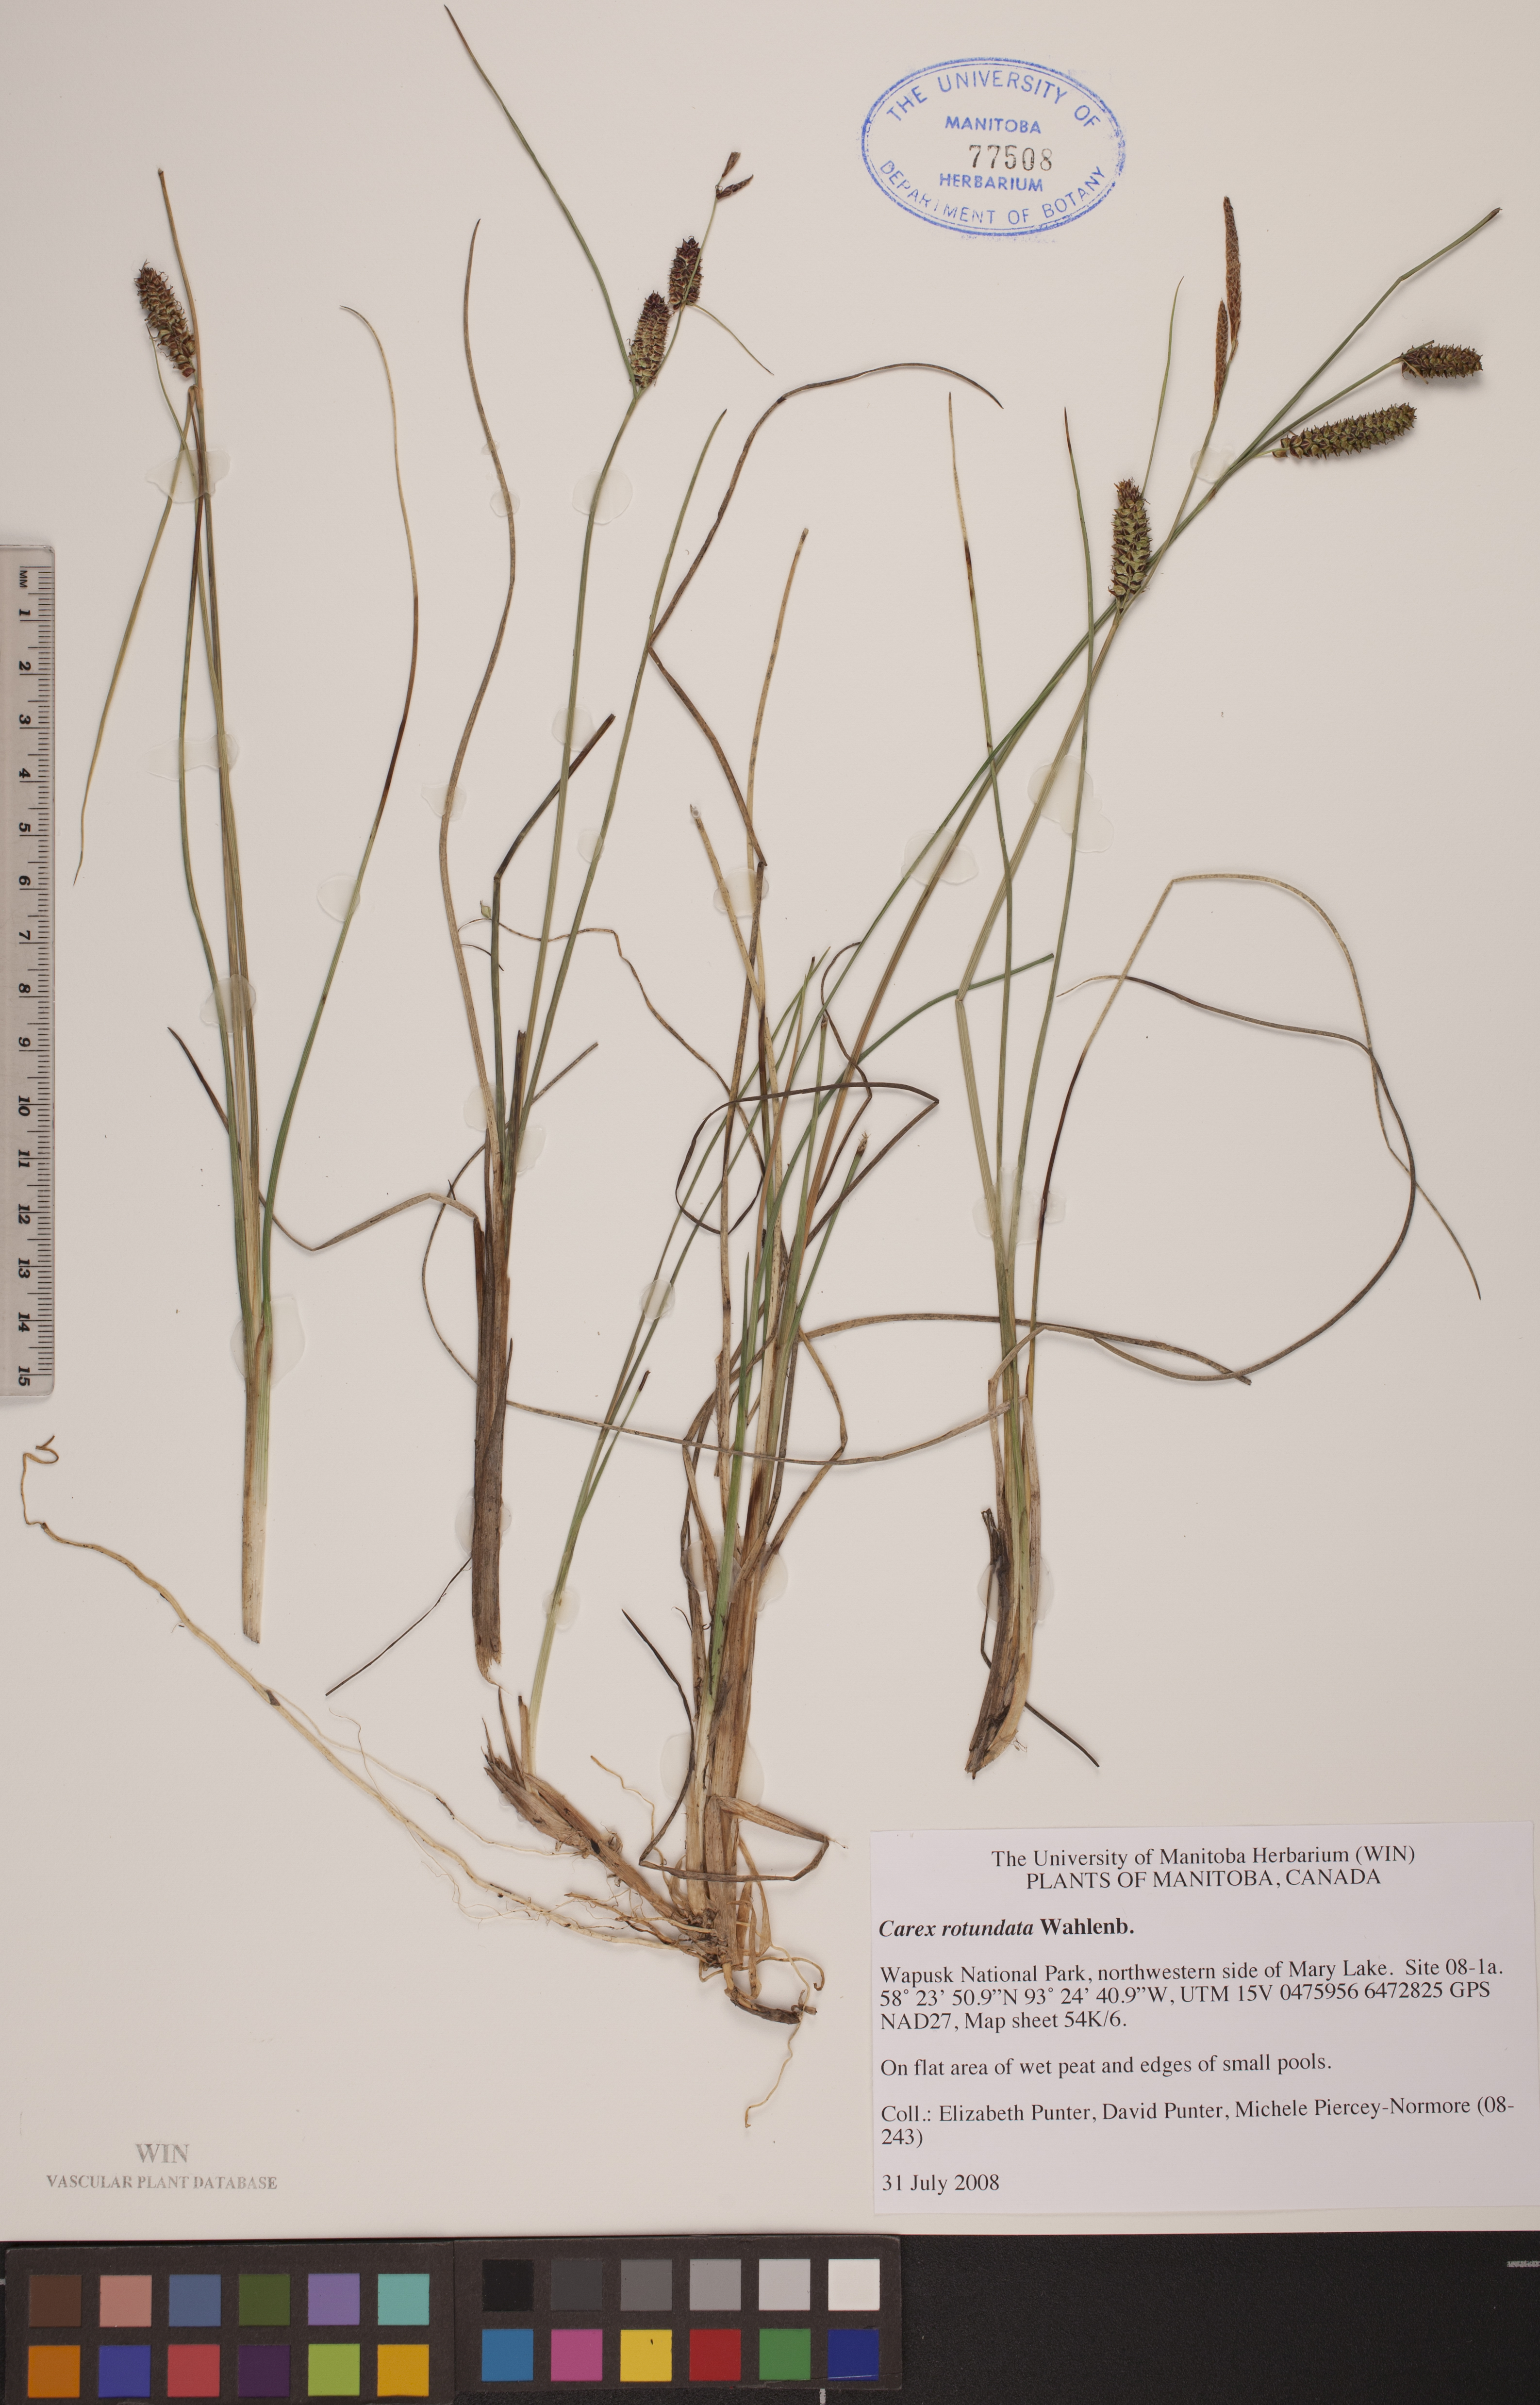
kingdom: Plantae
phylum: Tracheophyta
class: Liliopsida
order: Poales
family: Cyperaceae
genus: Carex
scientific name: Carex rotundata
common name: Round-fruited sedge
